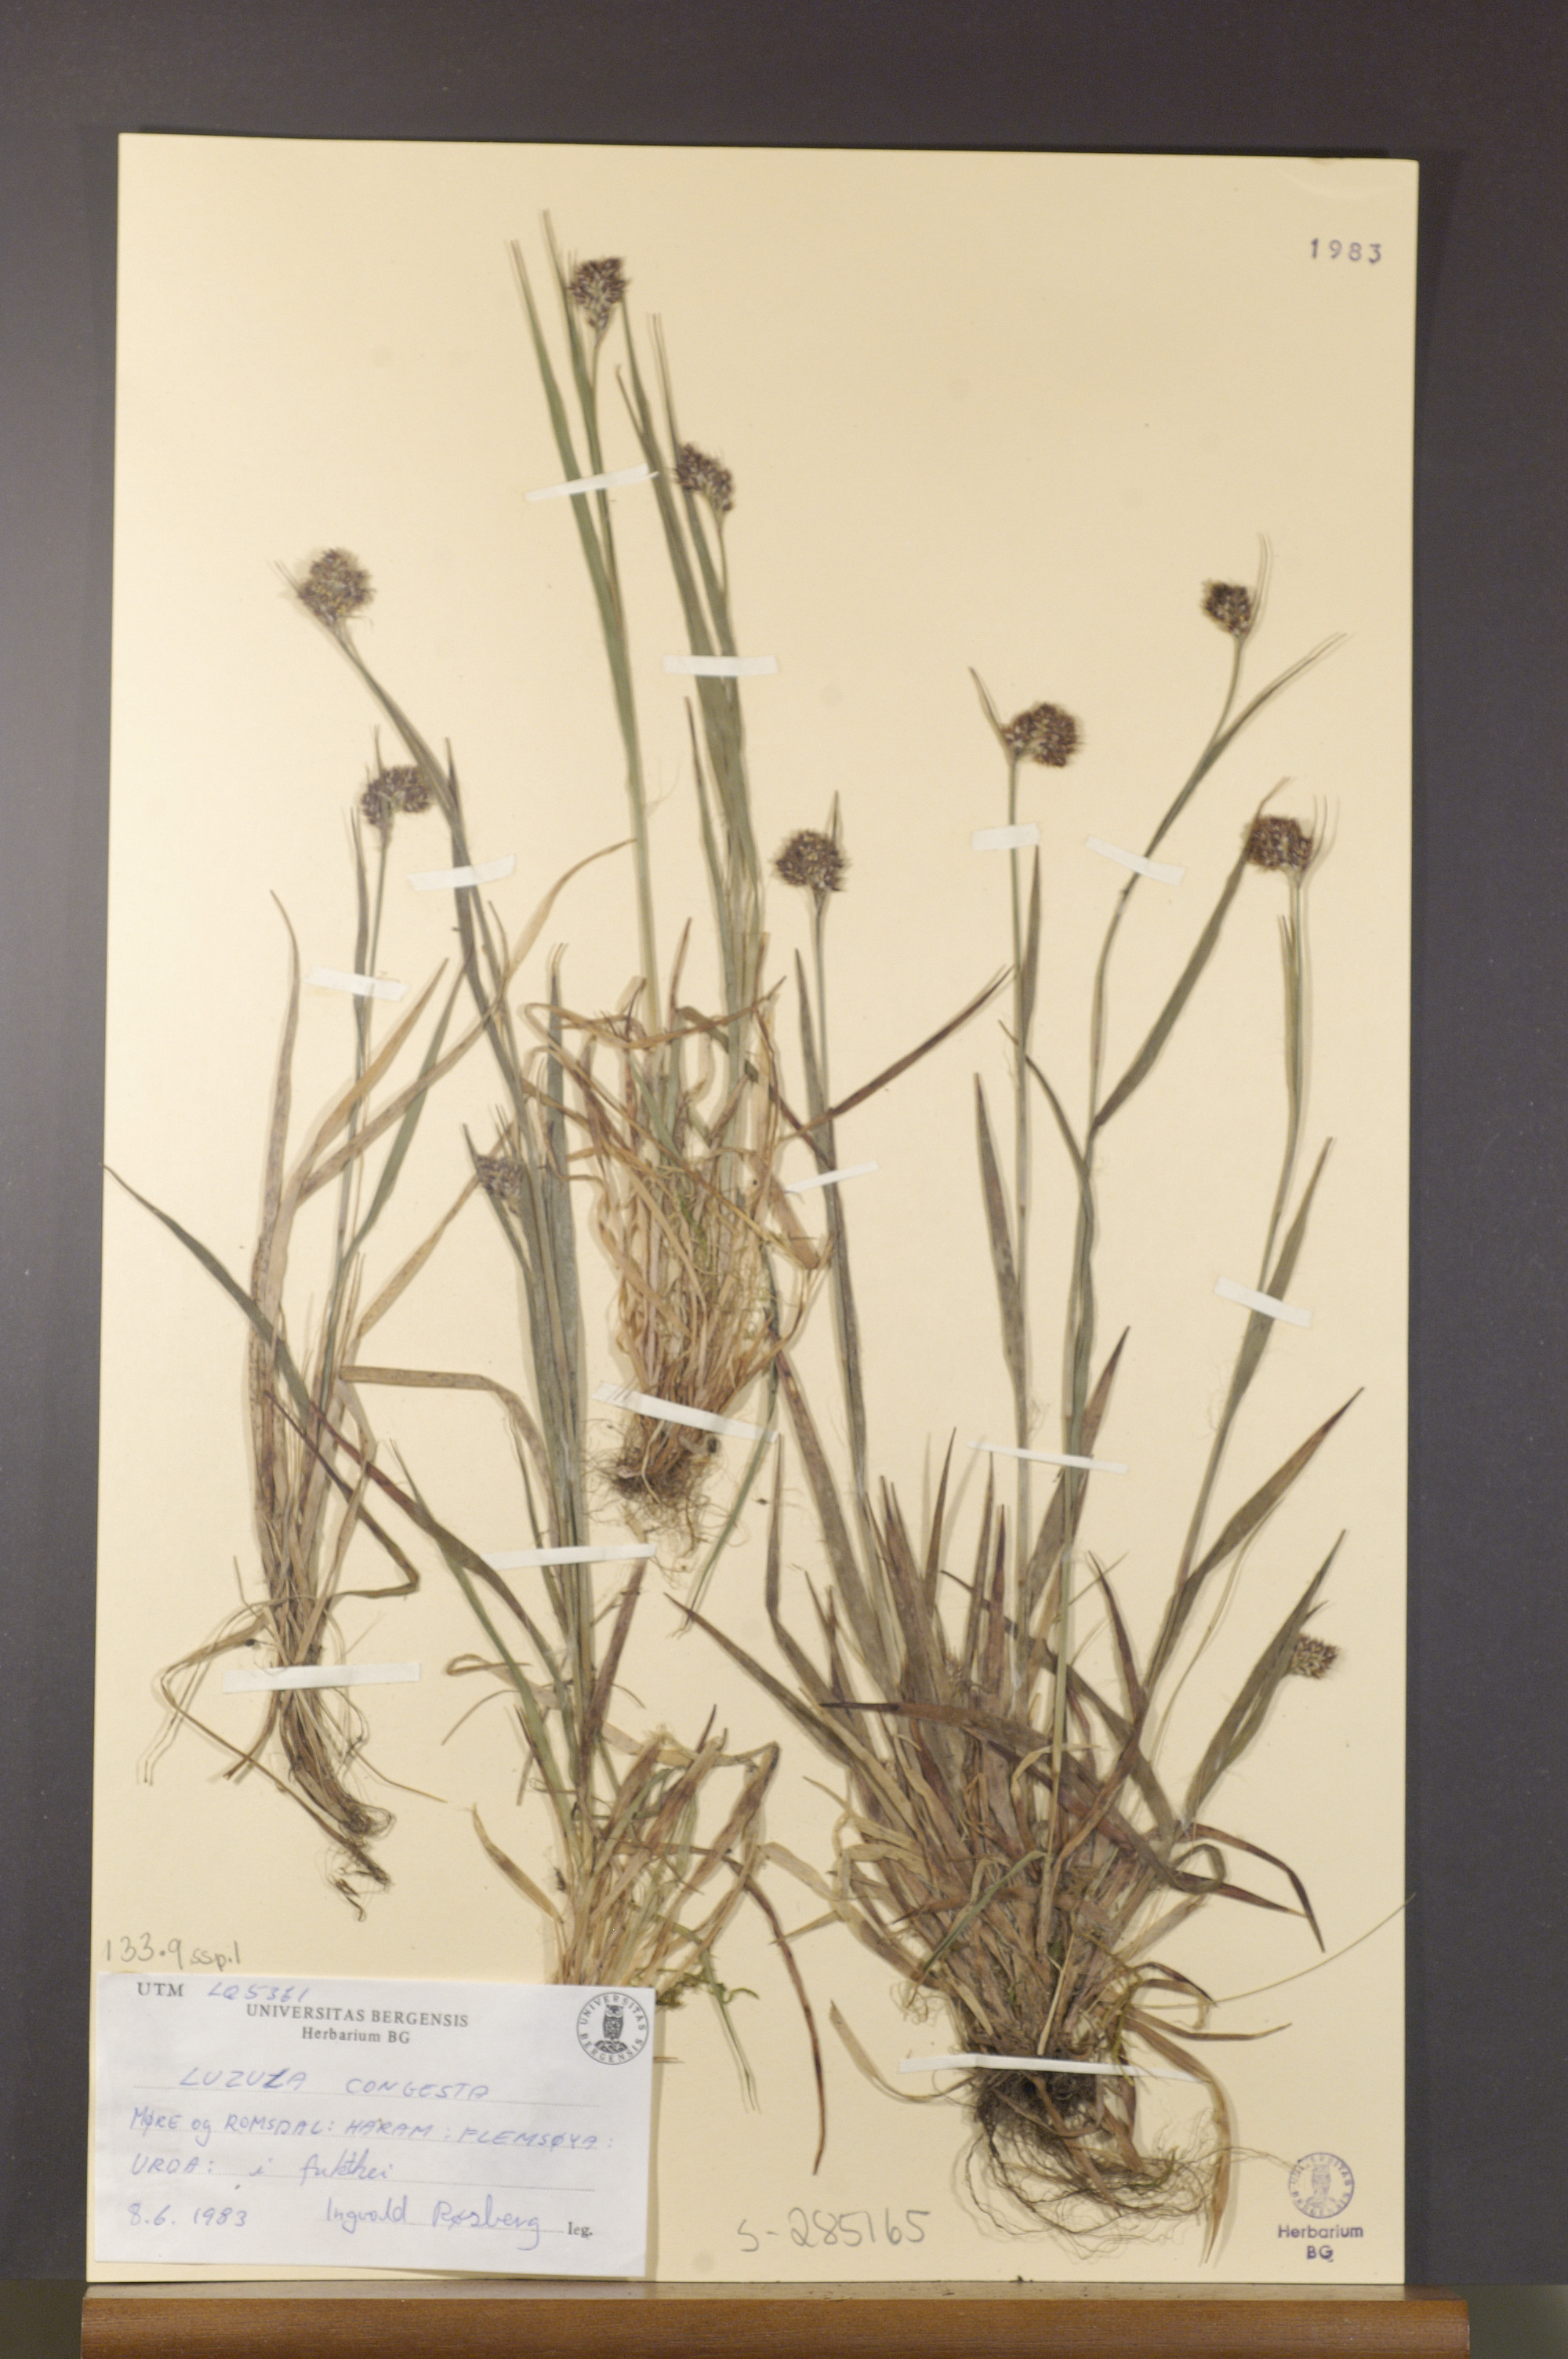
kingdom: Plantae
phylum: Tracheophyta
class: Liliopsida
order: Poales
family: Juncaceae
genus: Luzula
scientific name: Luzula congesta
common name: Heath woodrush
